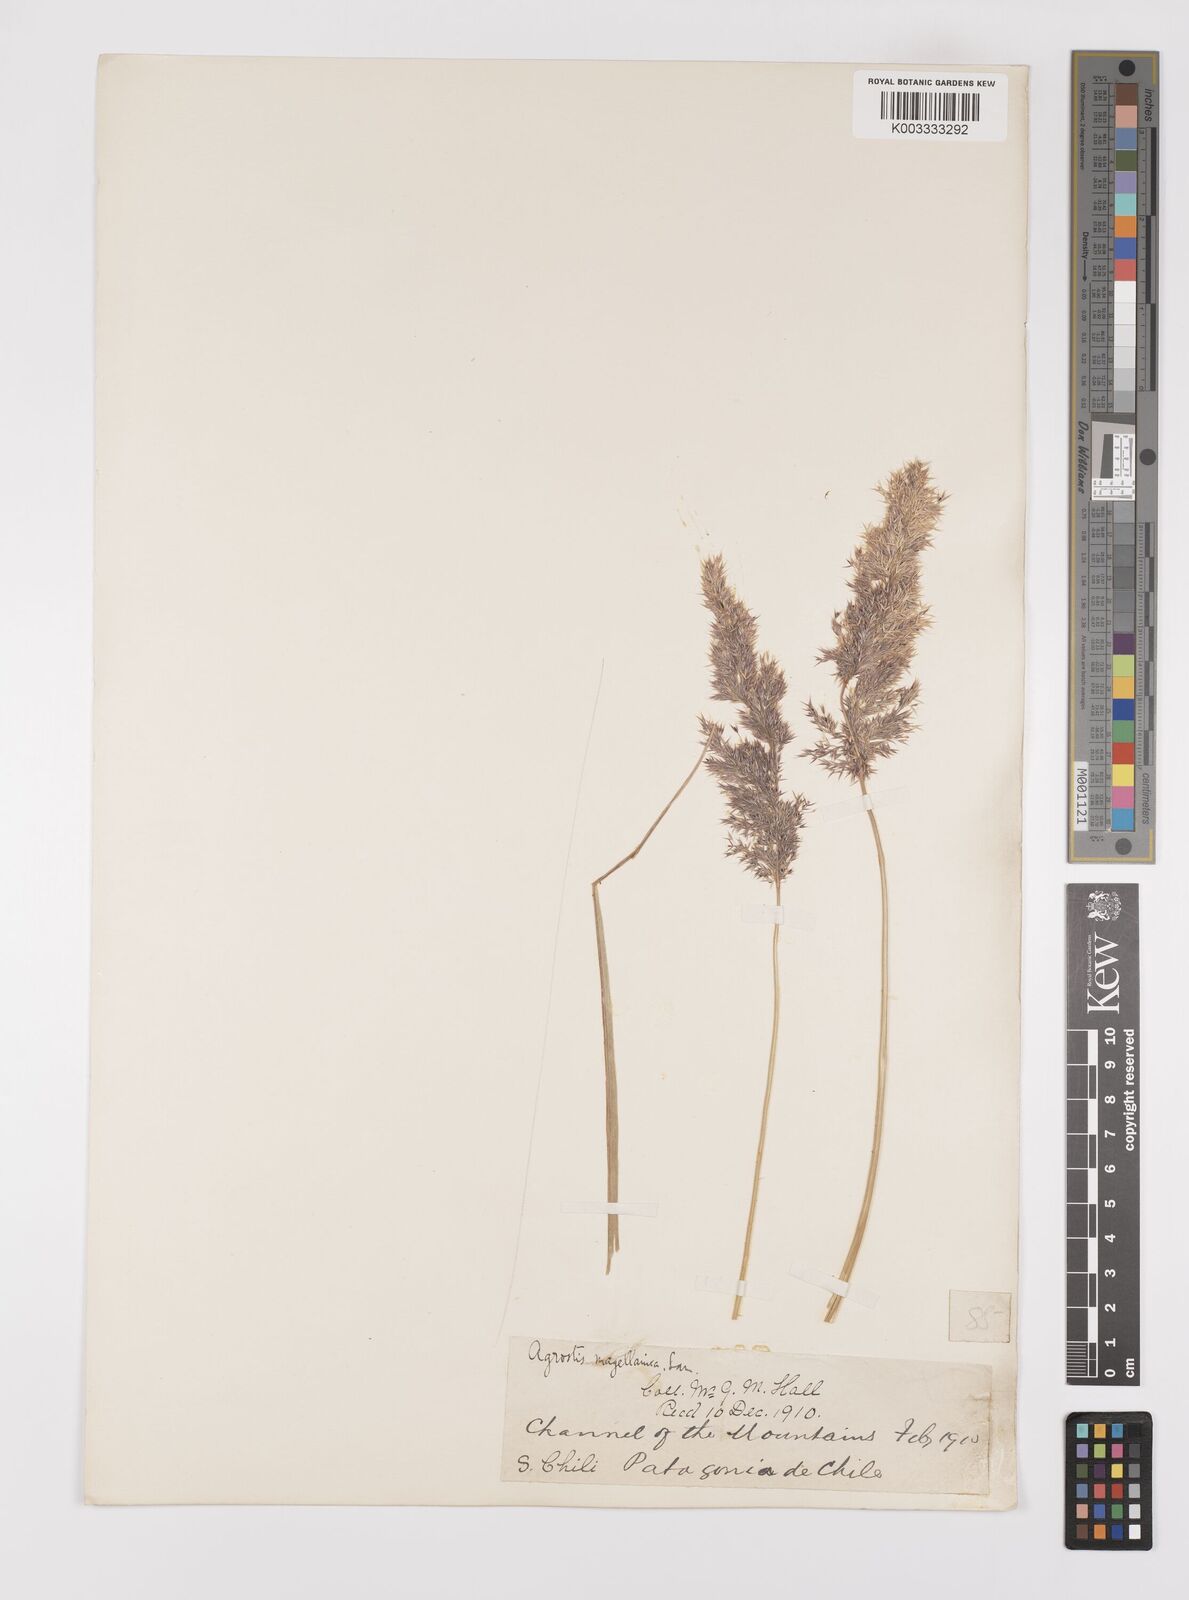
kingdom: Plantae
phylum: Tracheophyta
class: Liliopsida
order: Poales
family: Poaceae
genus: Polypogon
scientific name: Polypogon magellanicus
